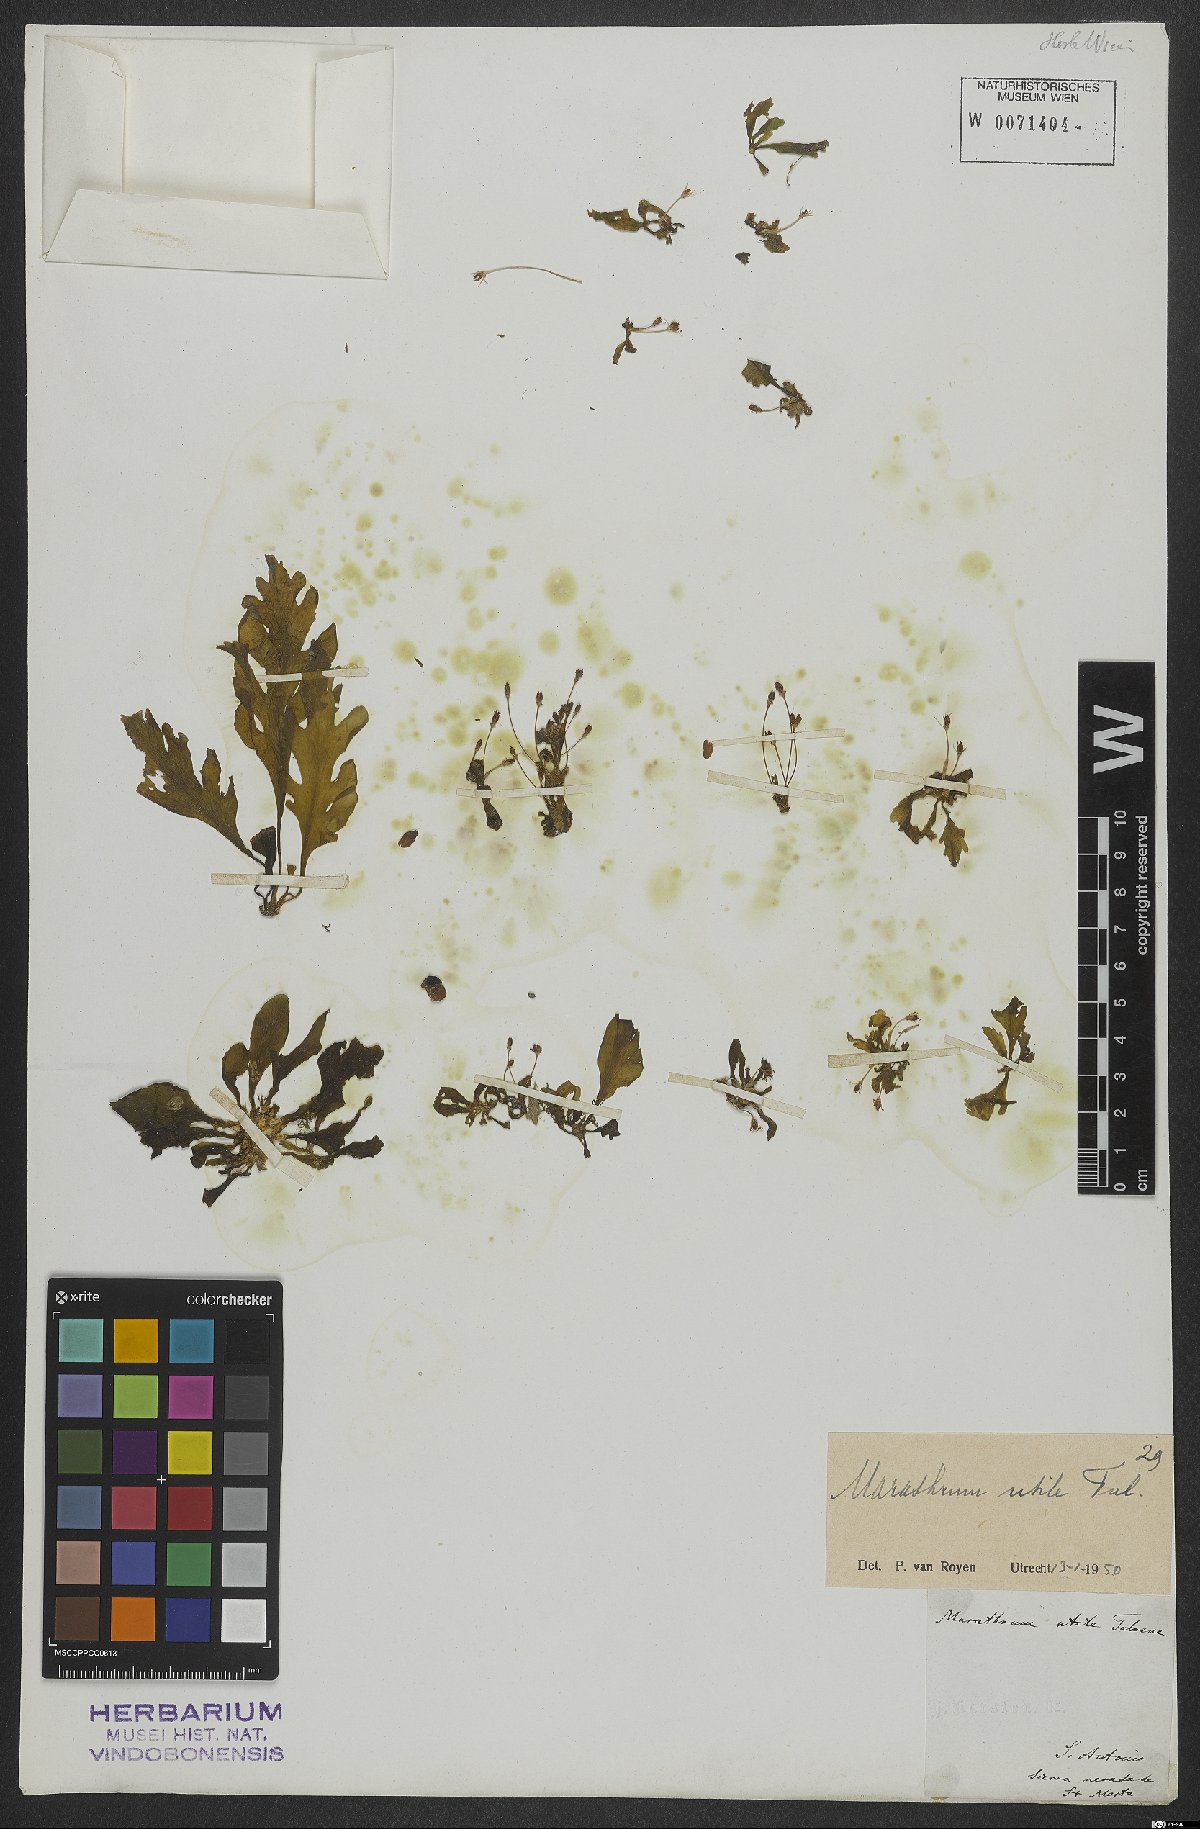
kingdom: Plantae
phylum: Tracheophyta
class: Magnoliopsida
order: Malpighiales
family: Podostemaceae
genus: Marathrum
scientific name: Marathrum utile
